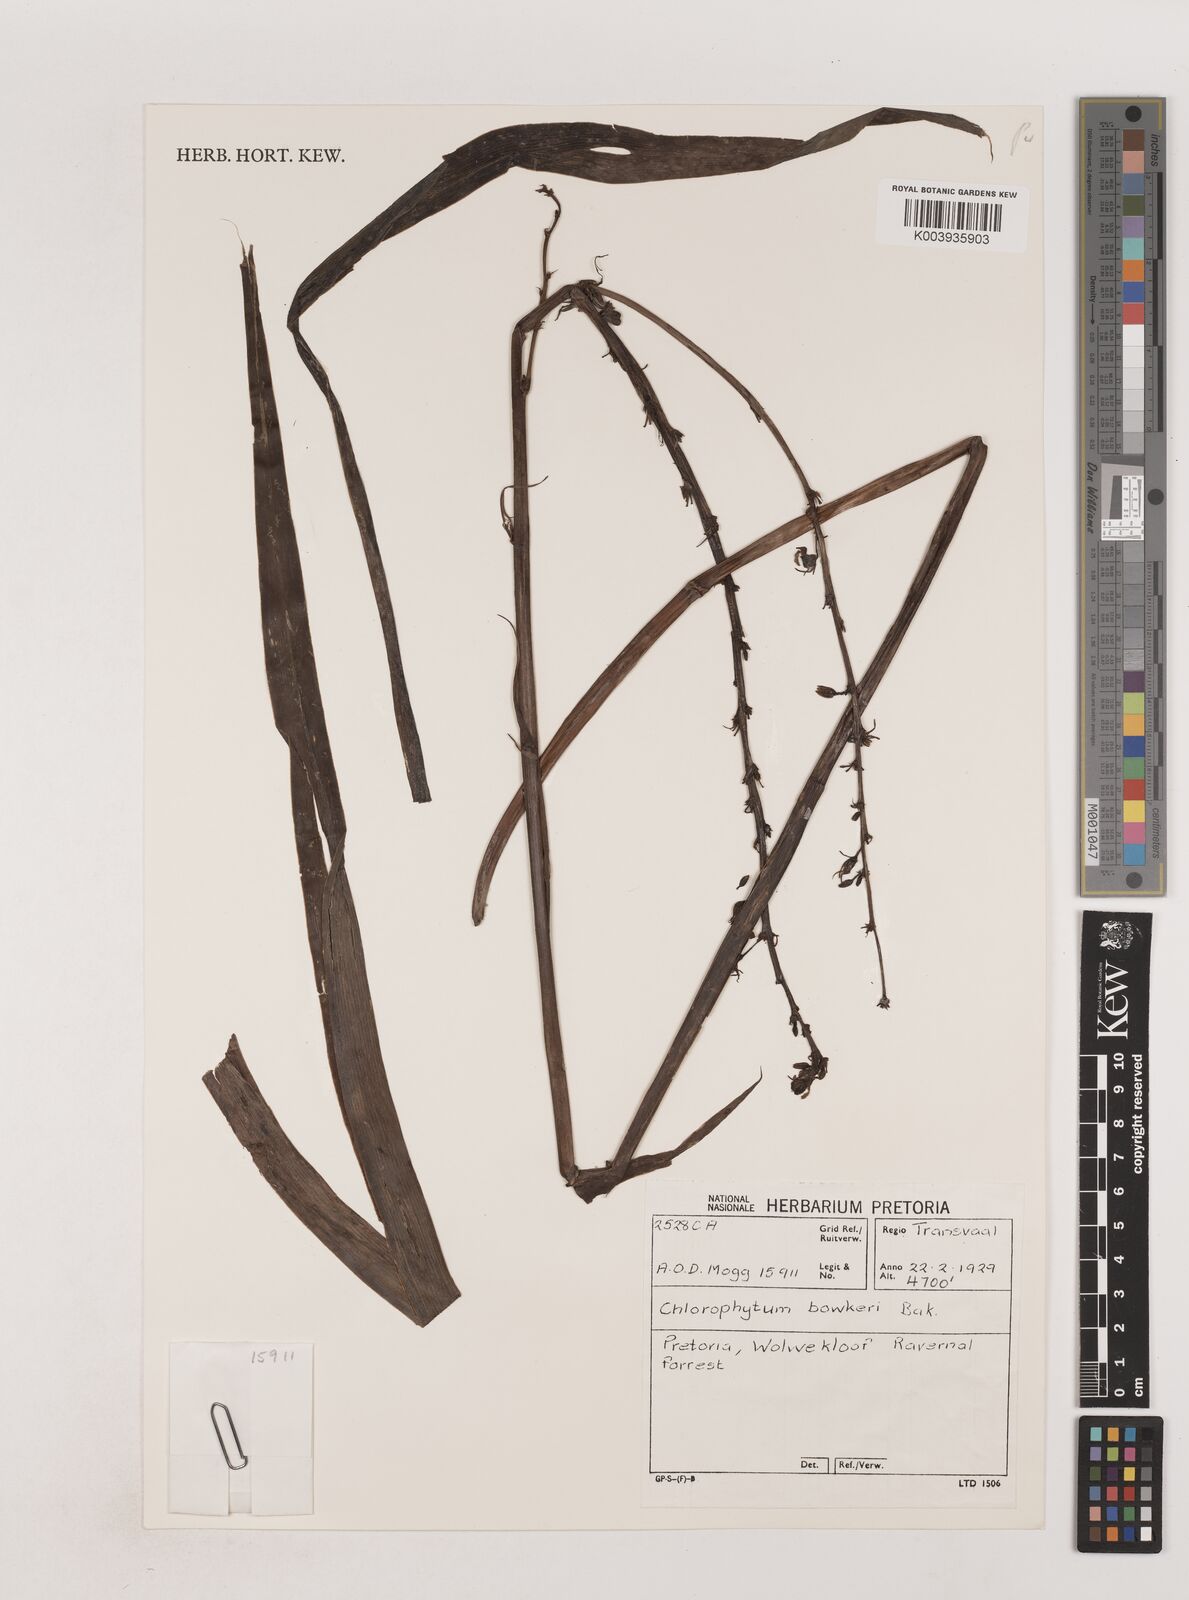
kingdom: Plantae
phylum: Tracheophyta
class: Liliopsida
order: Asparagales
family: Asparagaceae
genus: Chlorophytum
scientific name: Chlorophytum bowkeri
